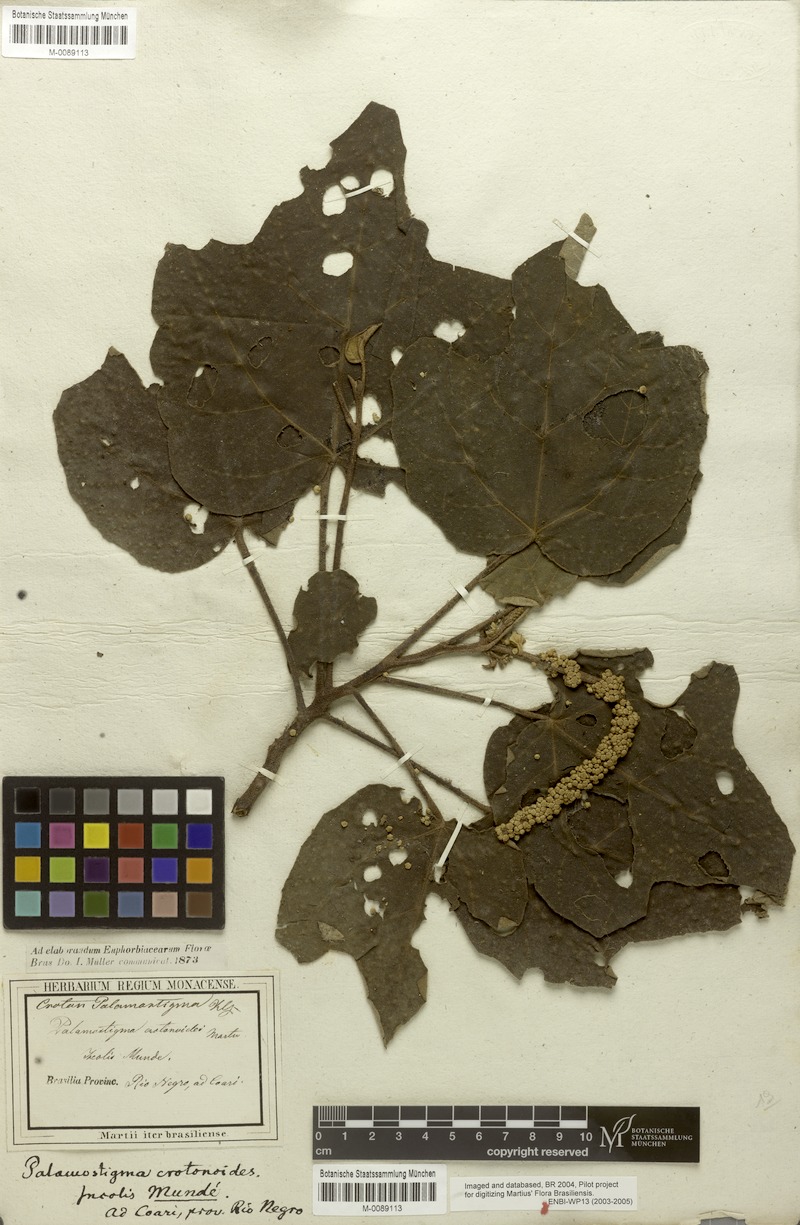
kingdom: Plantae
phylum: Tracheophyta
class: Magnoliopsida
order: Malpighiales
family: Euphorbiaceae
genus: Croton
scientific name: Croton palanostigma
